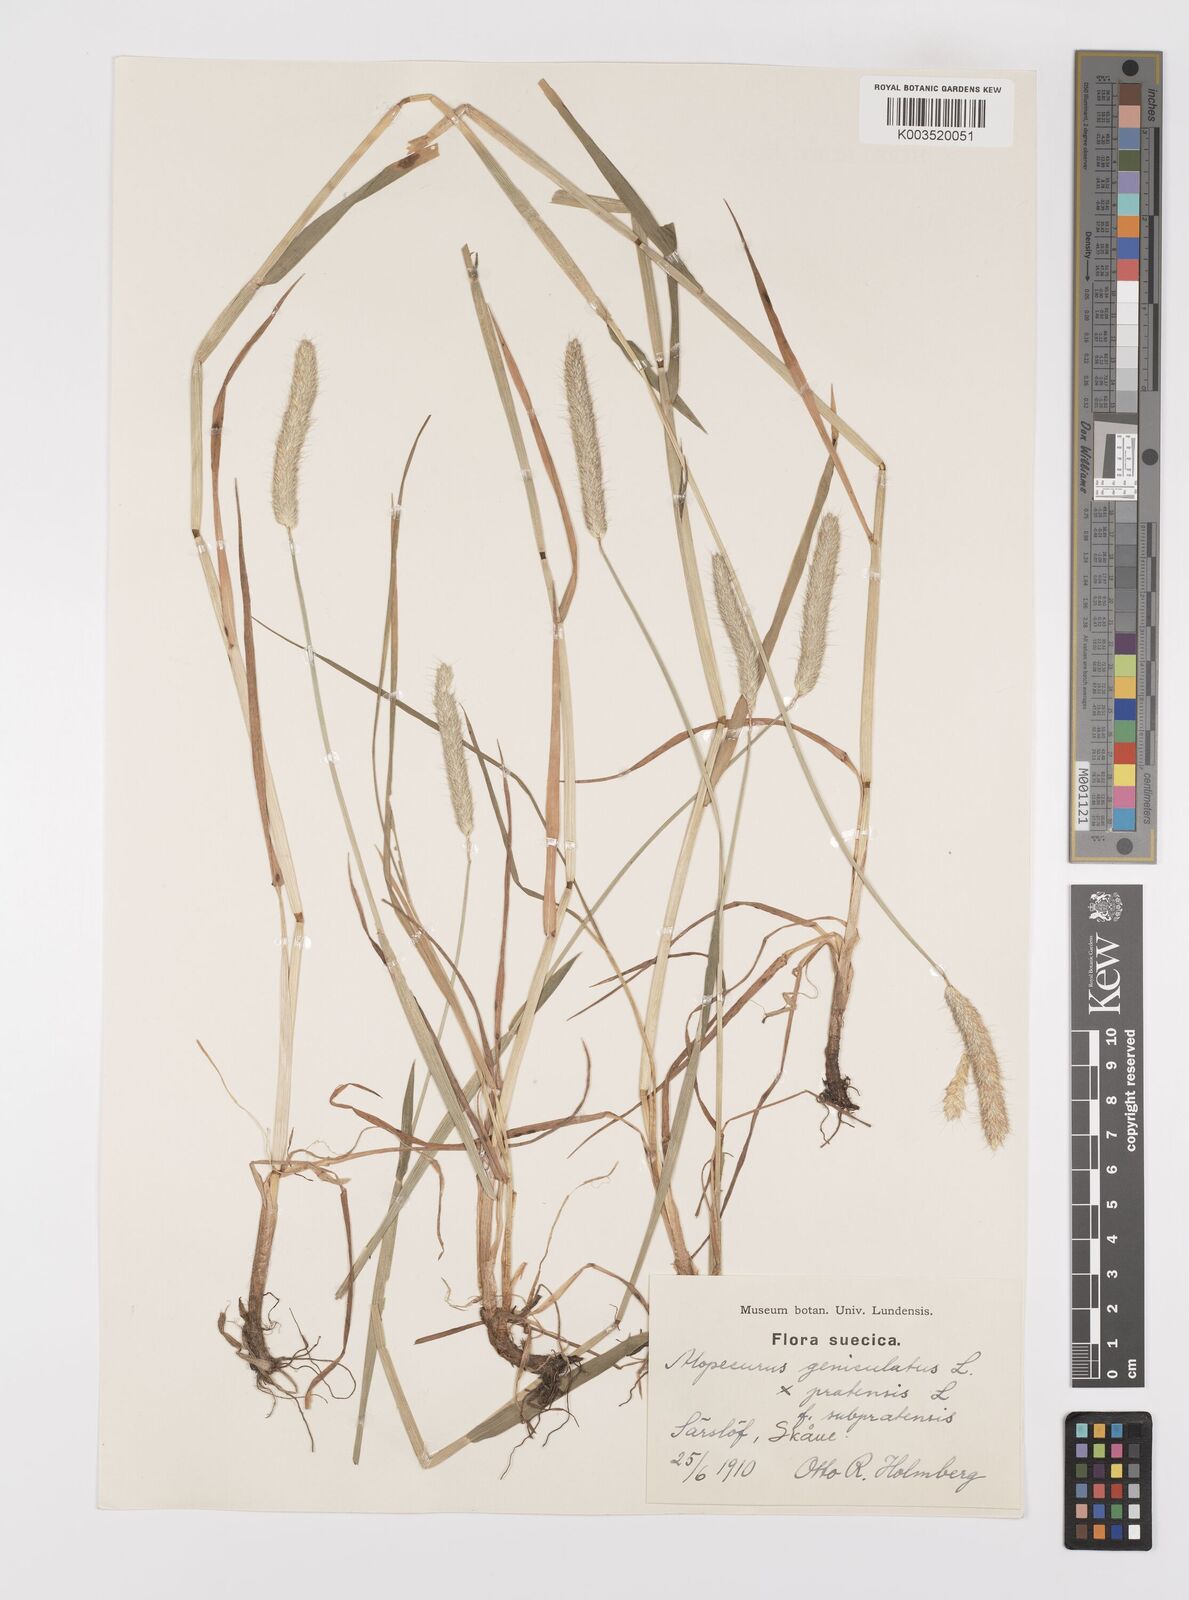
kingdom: Plantae
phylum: Tracheophyta
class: Liliopsida
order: Poales
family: Poaceae
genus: Alopecurus
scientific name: Alopecurus brachystylus
